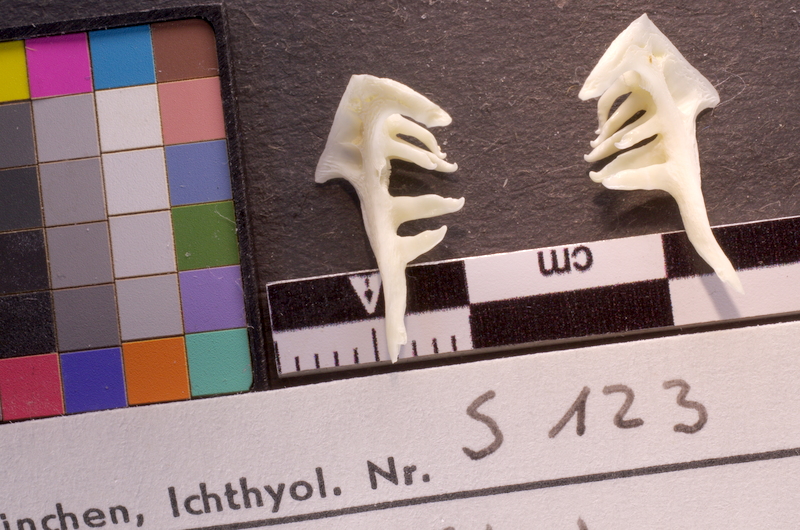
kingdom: Animalia
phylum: Chordata
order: Cypriniformes
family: Cyprinidae
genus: Squalius
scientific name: Squalius cephalus
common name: Chub
